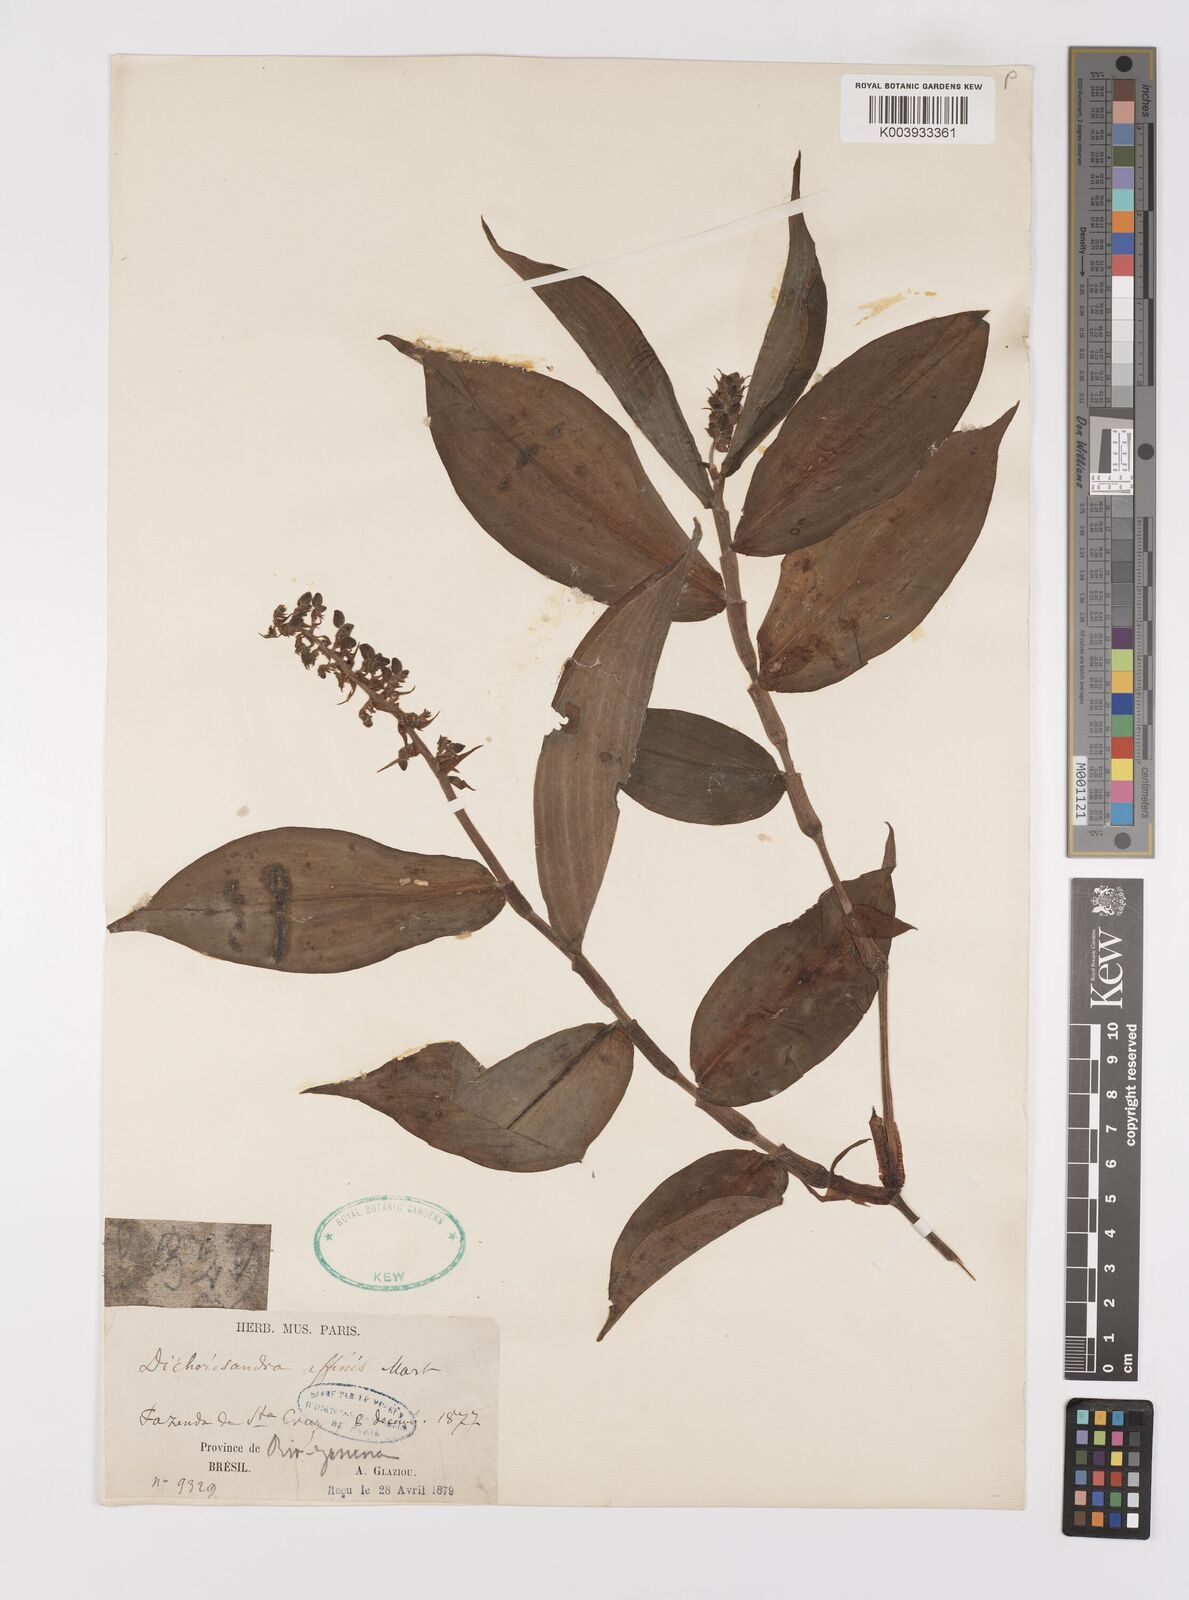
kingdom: Plantae
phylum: Tracheophyta
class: Liliopsida
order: Commelinales
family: Commelinaceae
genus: Dichorisandra
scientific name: Dichorisandra hexandra
